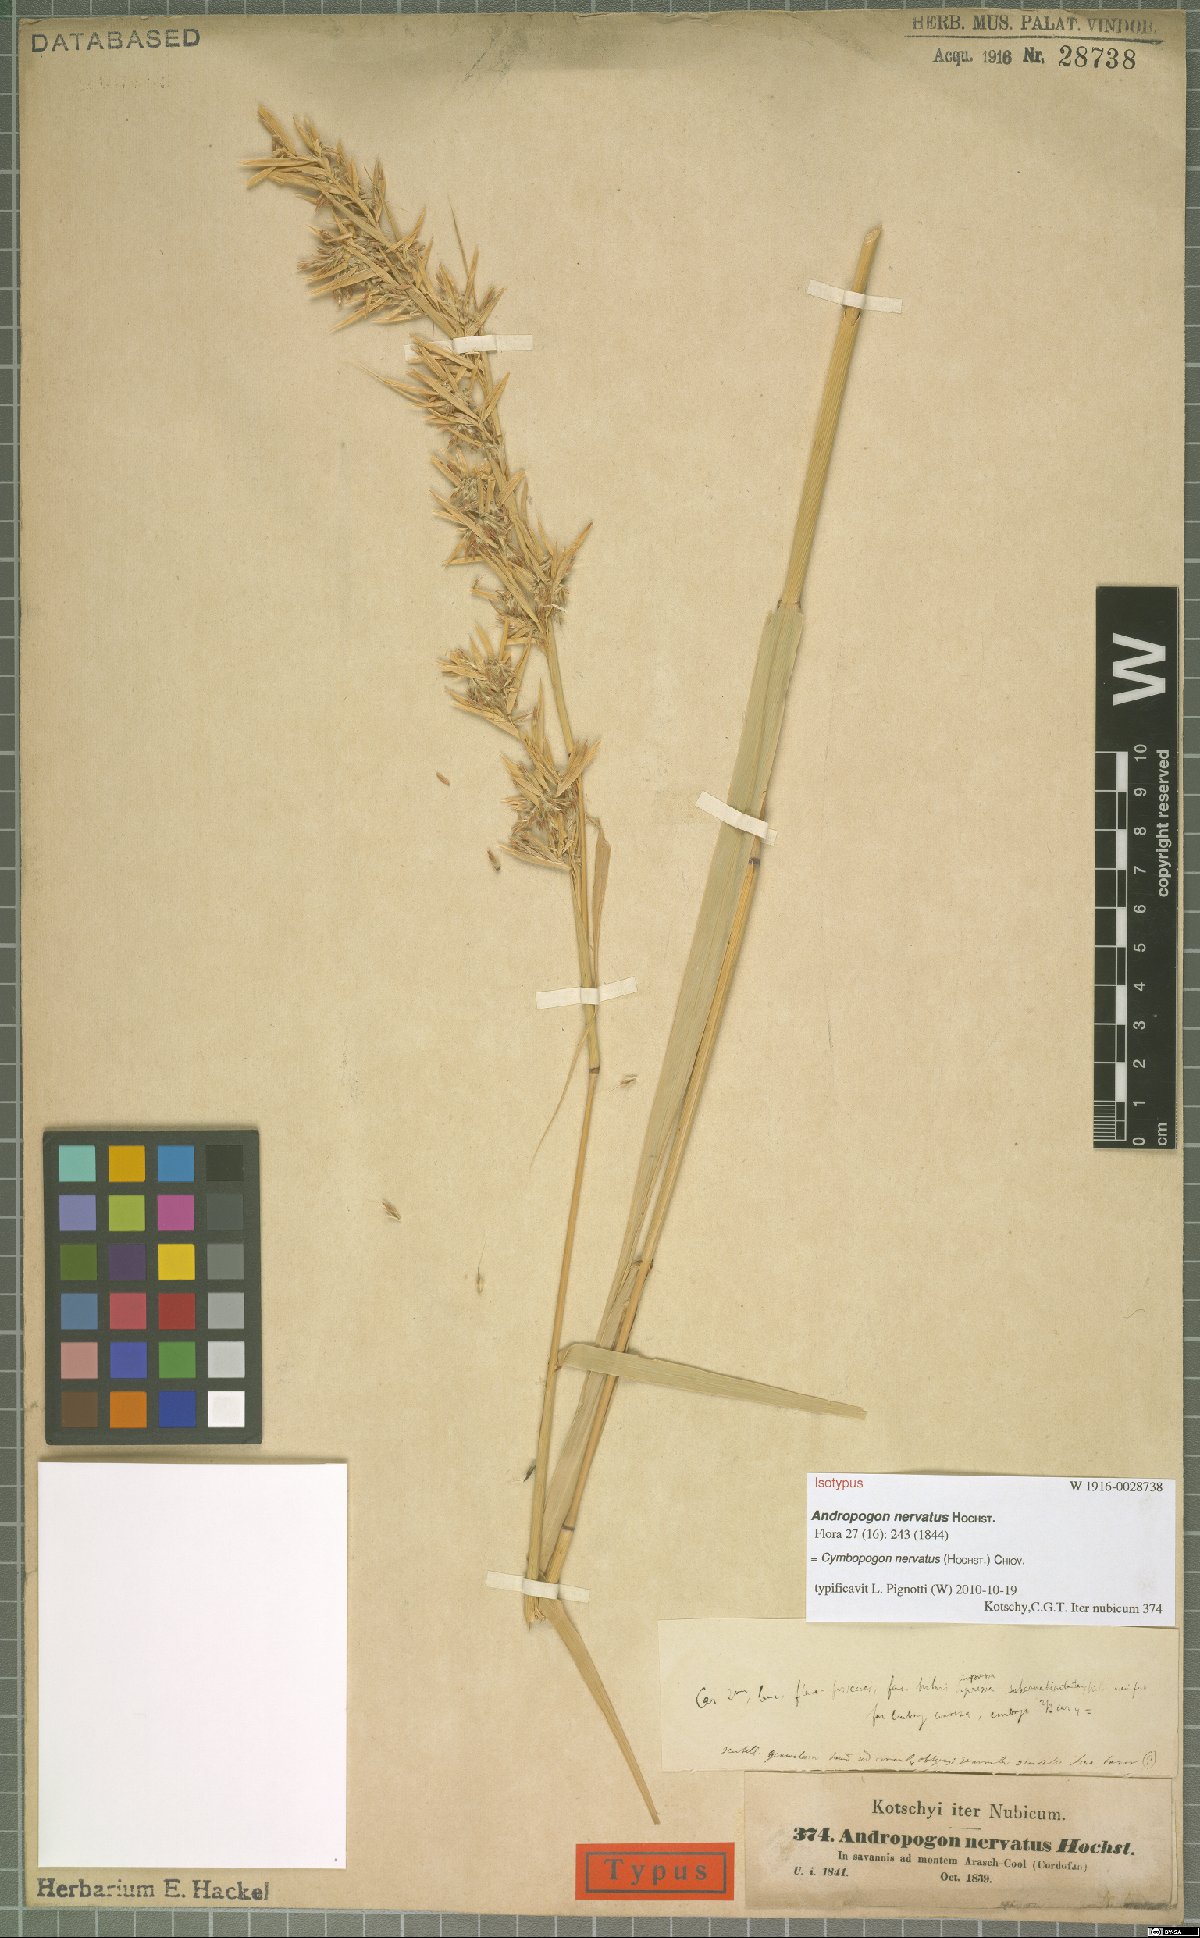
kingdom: Plantae
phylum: Tracheophyta
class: Liliopsida
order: Poales
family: Poaceae
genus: Cymbopogon
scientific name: Cymbopogon nervatus
